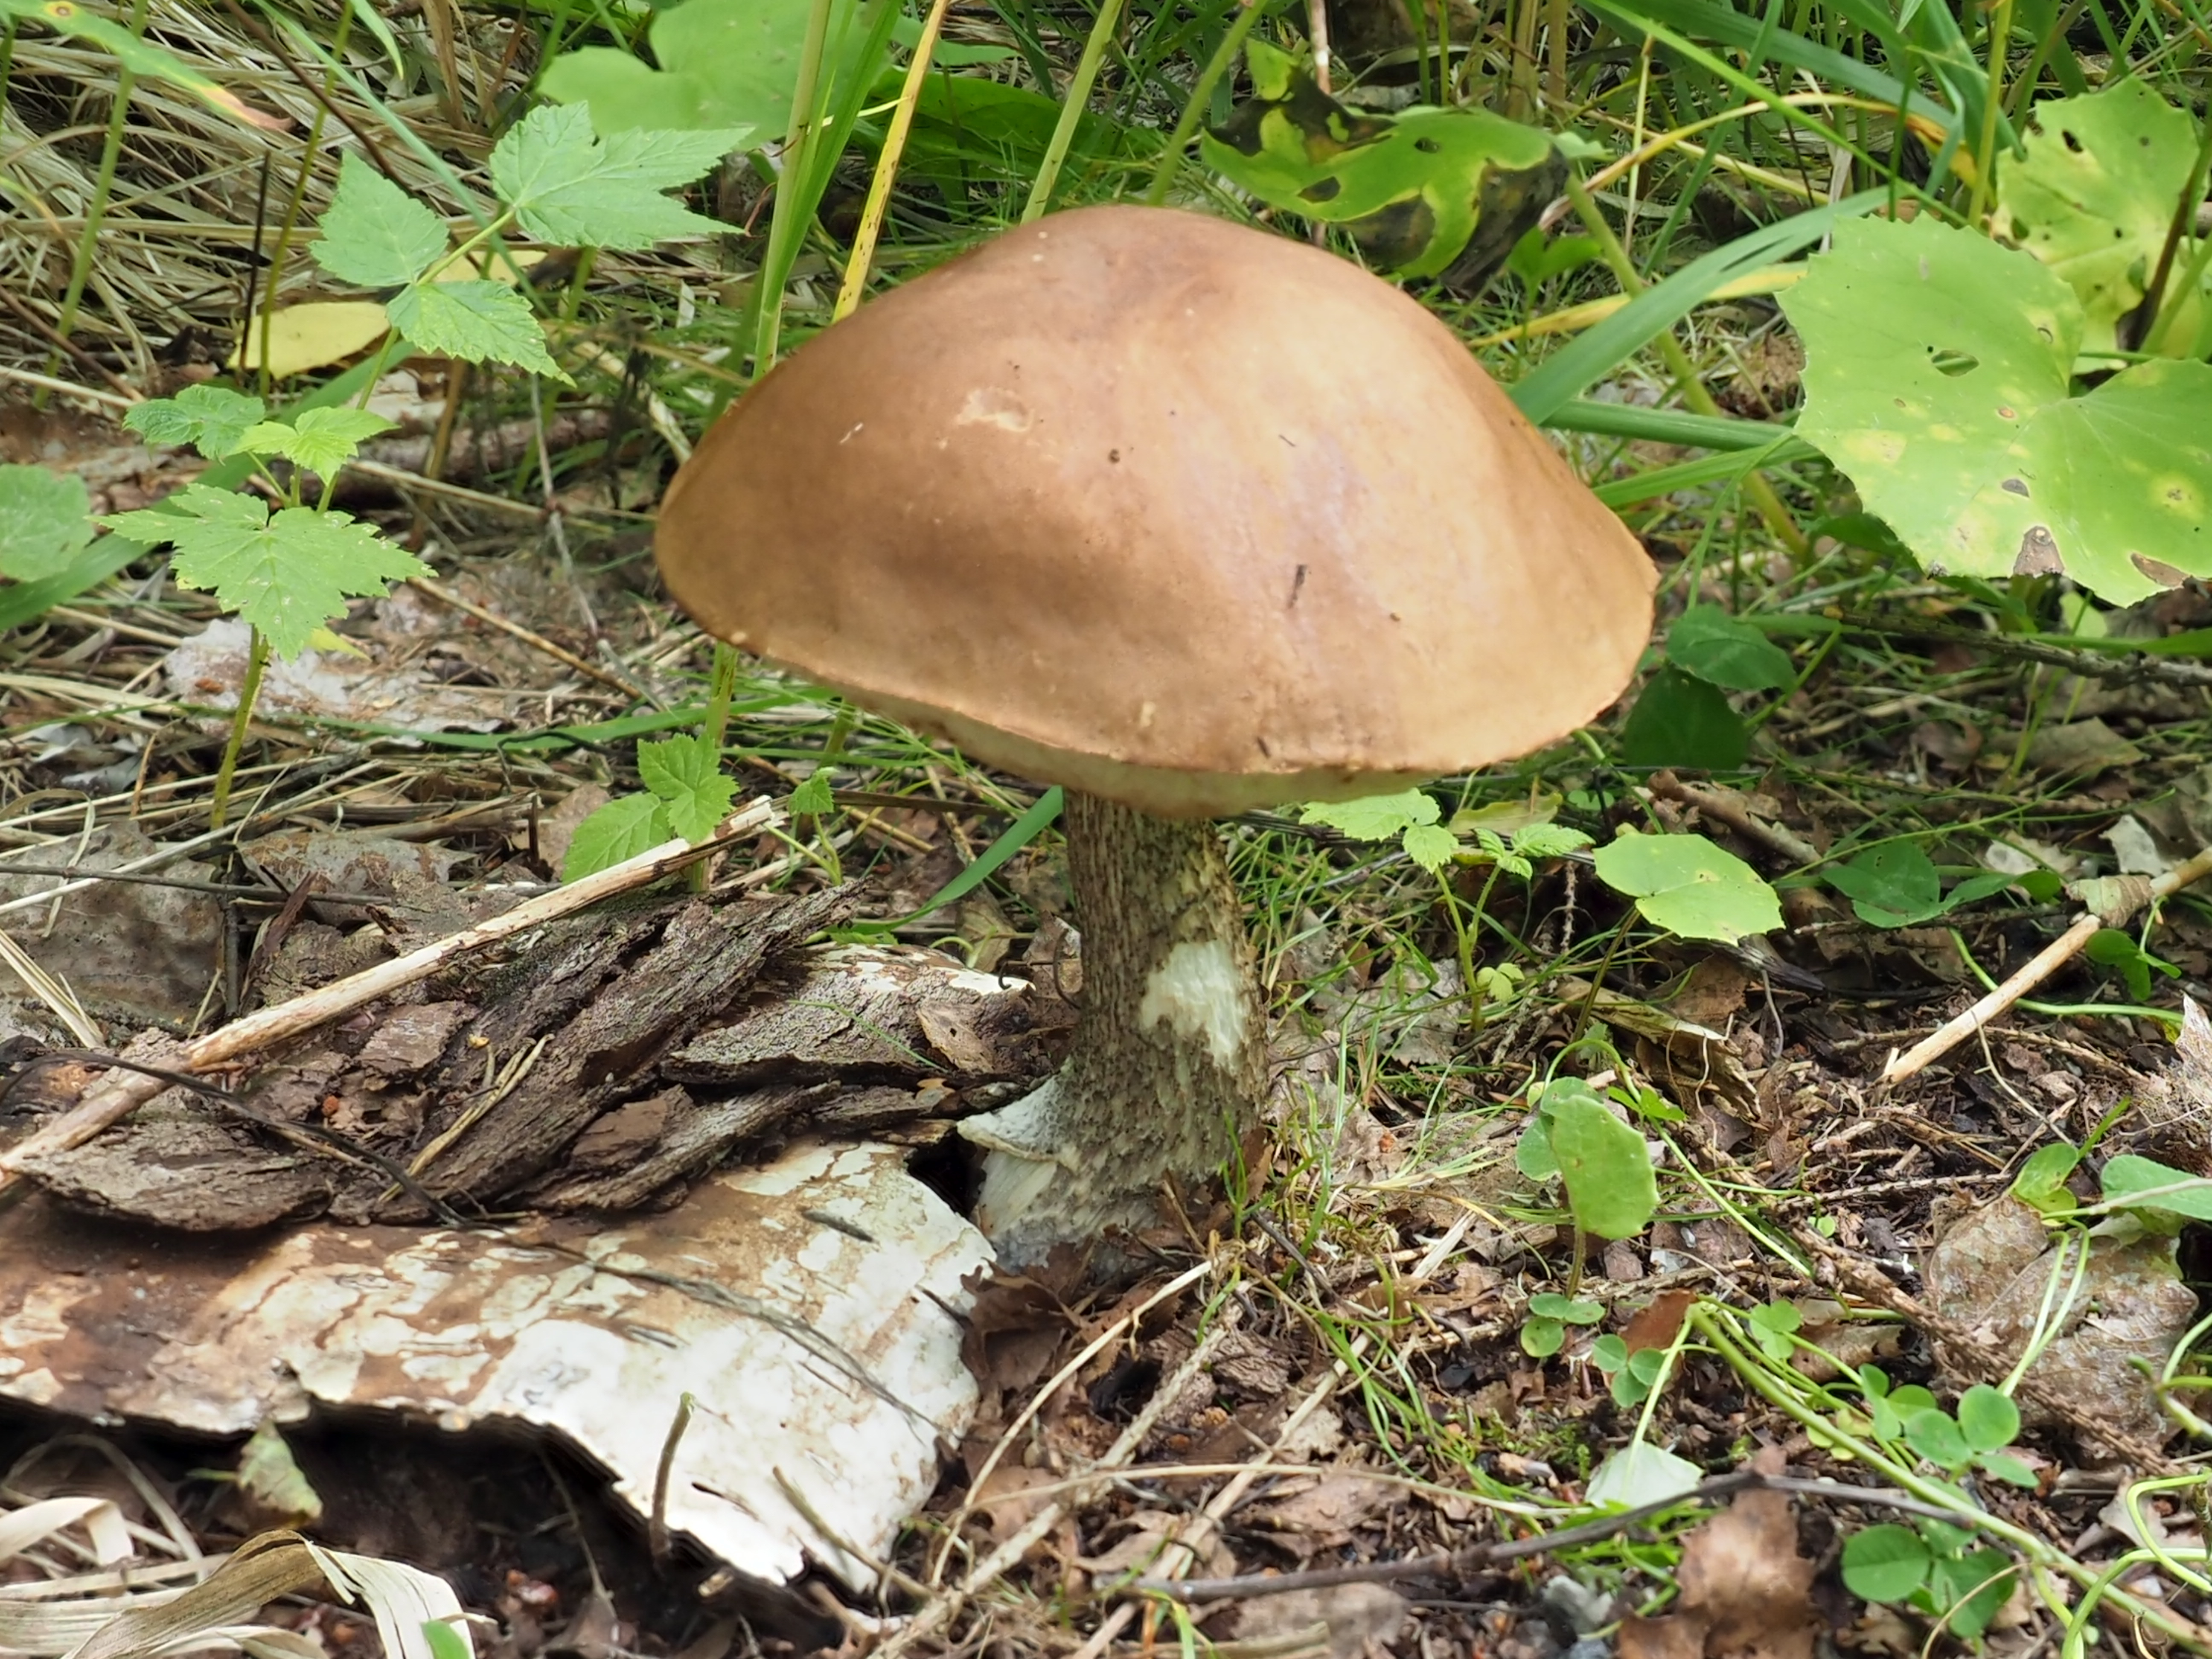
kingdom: Fungi
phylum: Basidiomycota
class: Agaricomycetes
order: Boletales
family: Boletaceae
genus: Leccinum
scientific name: Leccinum scabrum
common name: Blushing bolete
